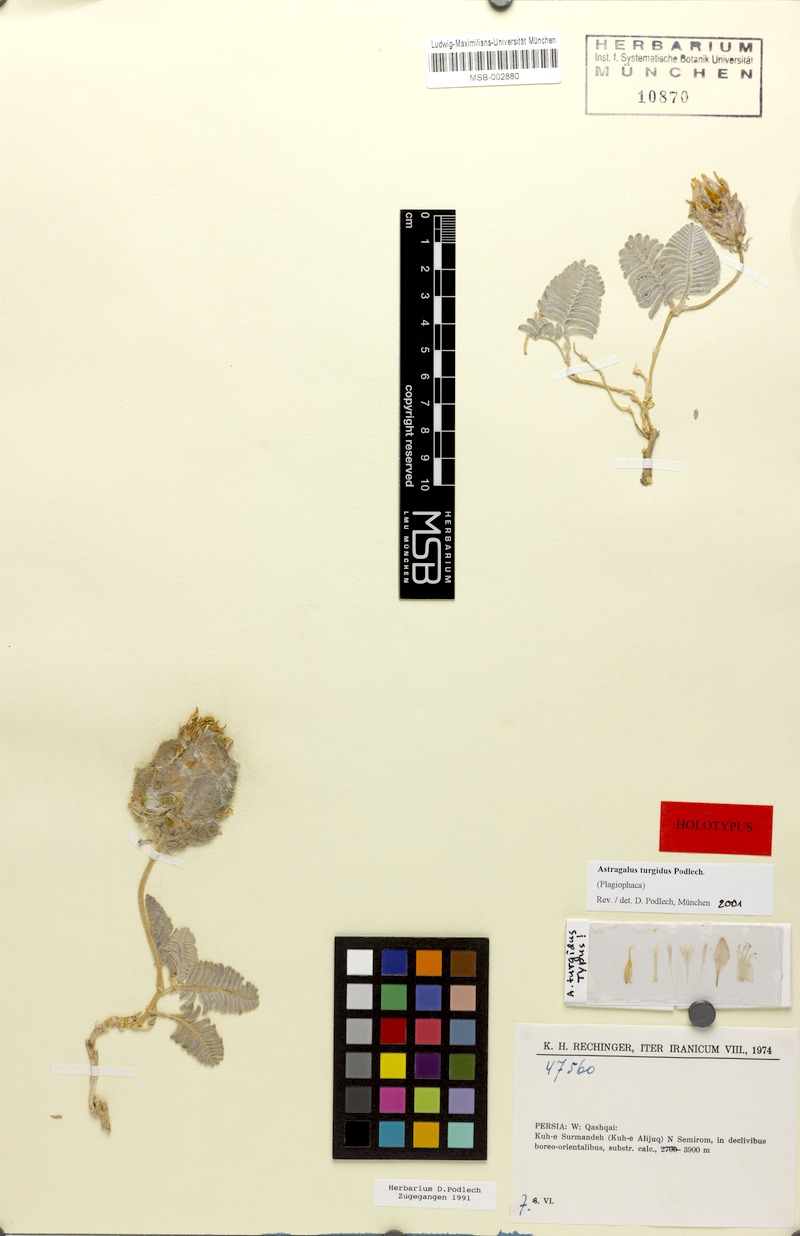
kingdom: Plantae
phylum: Tracheophyta
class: Magnoliopsida
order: Fabales
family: Fabaceae
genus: Astragalus
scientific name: Astragalus inexpectatus
